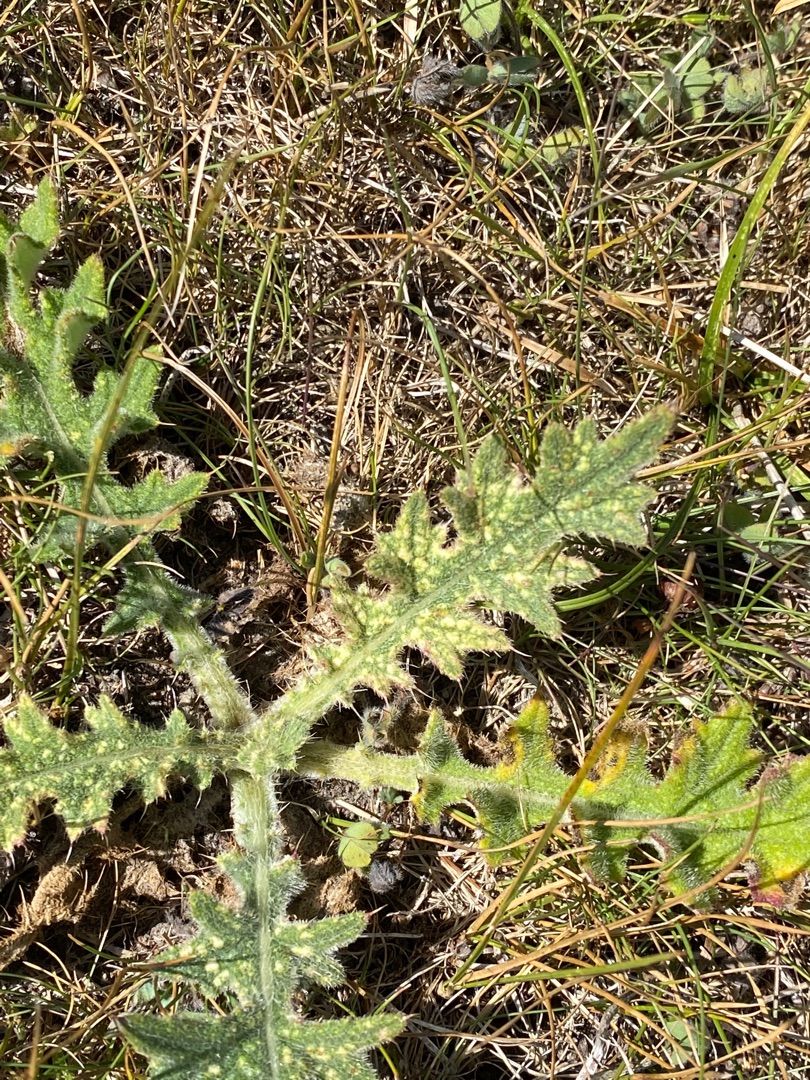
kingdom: Plantae
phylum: Tracheophyta
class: Magnoliopsida
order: Asterales
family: Asteraceae
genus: Cirsium
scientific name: Cirsium vulgare
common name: Horse-tidsel
